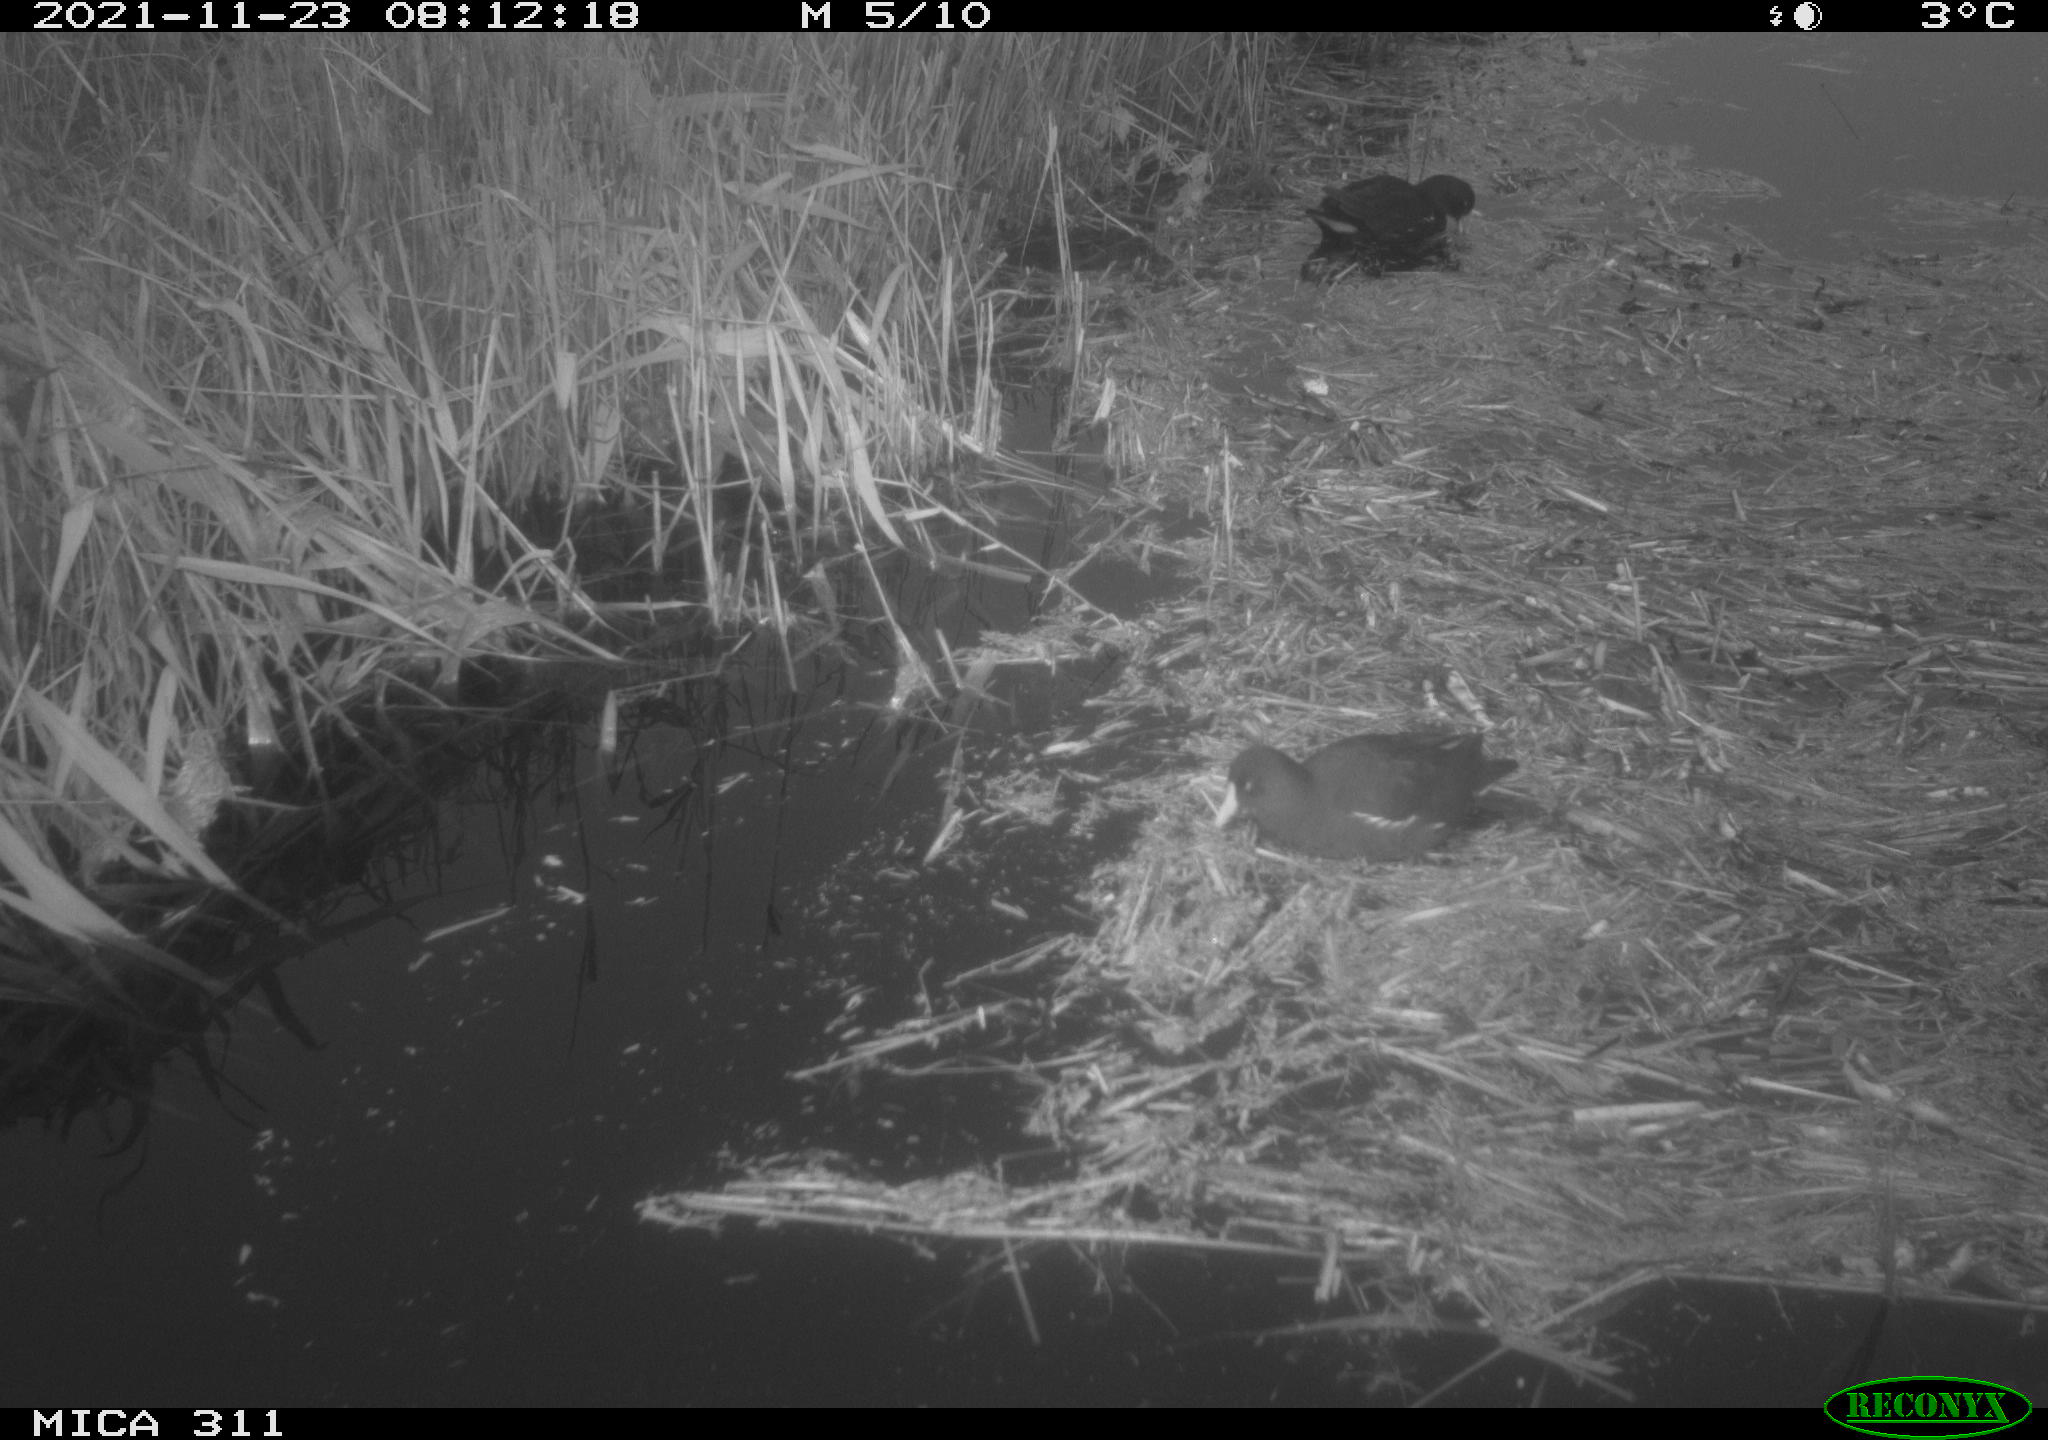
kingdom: Animalia
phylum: Chordata
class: Aves
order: Gruiformes
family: Rallidae
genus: Gallinula
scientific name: Gallinula chloropus
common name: Common moorhen
